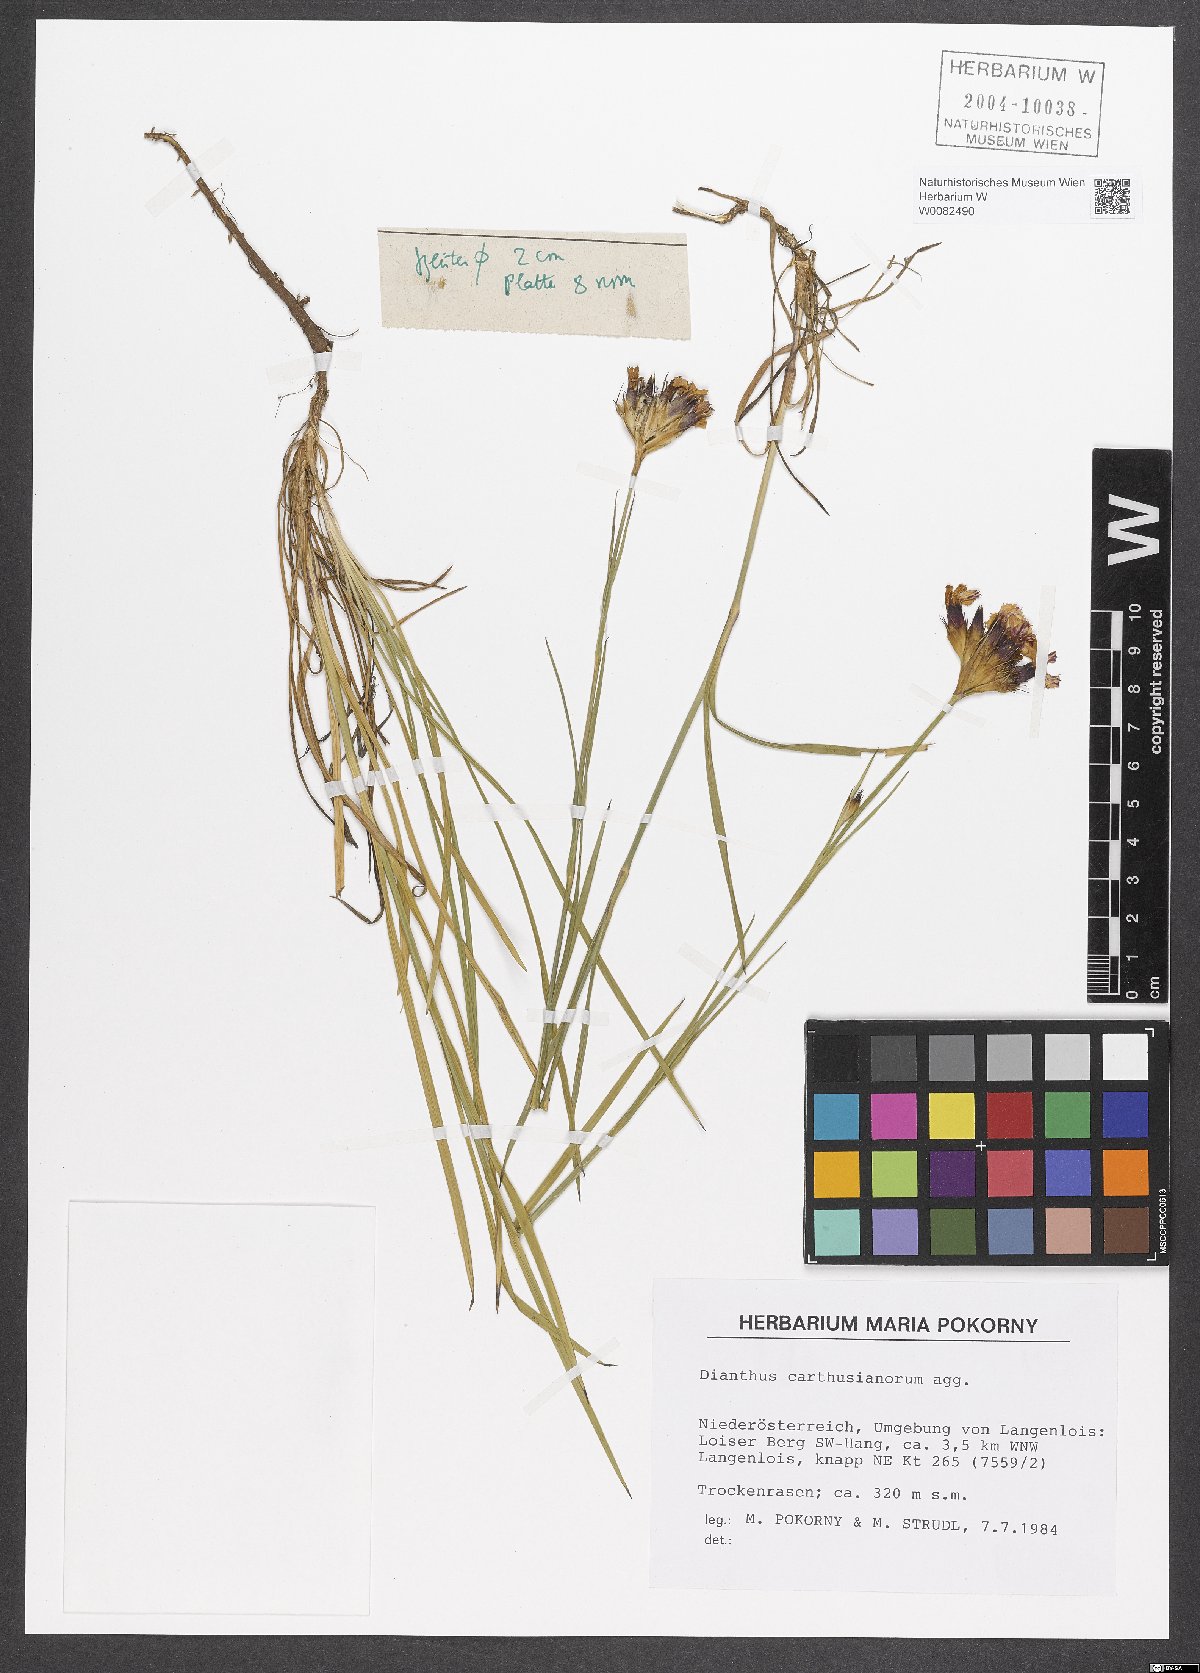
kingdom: Plantae
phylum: Tracheophyta
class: Magnoliopsida
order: Caryophyllales
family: Caryophyllaceae
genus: Dianthus
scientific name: Dianthus carthusianorum
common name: Carthusian pink
